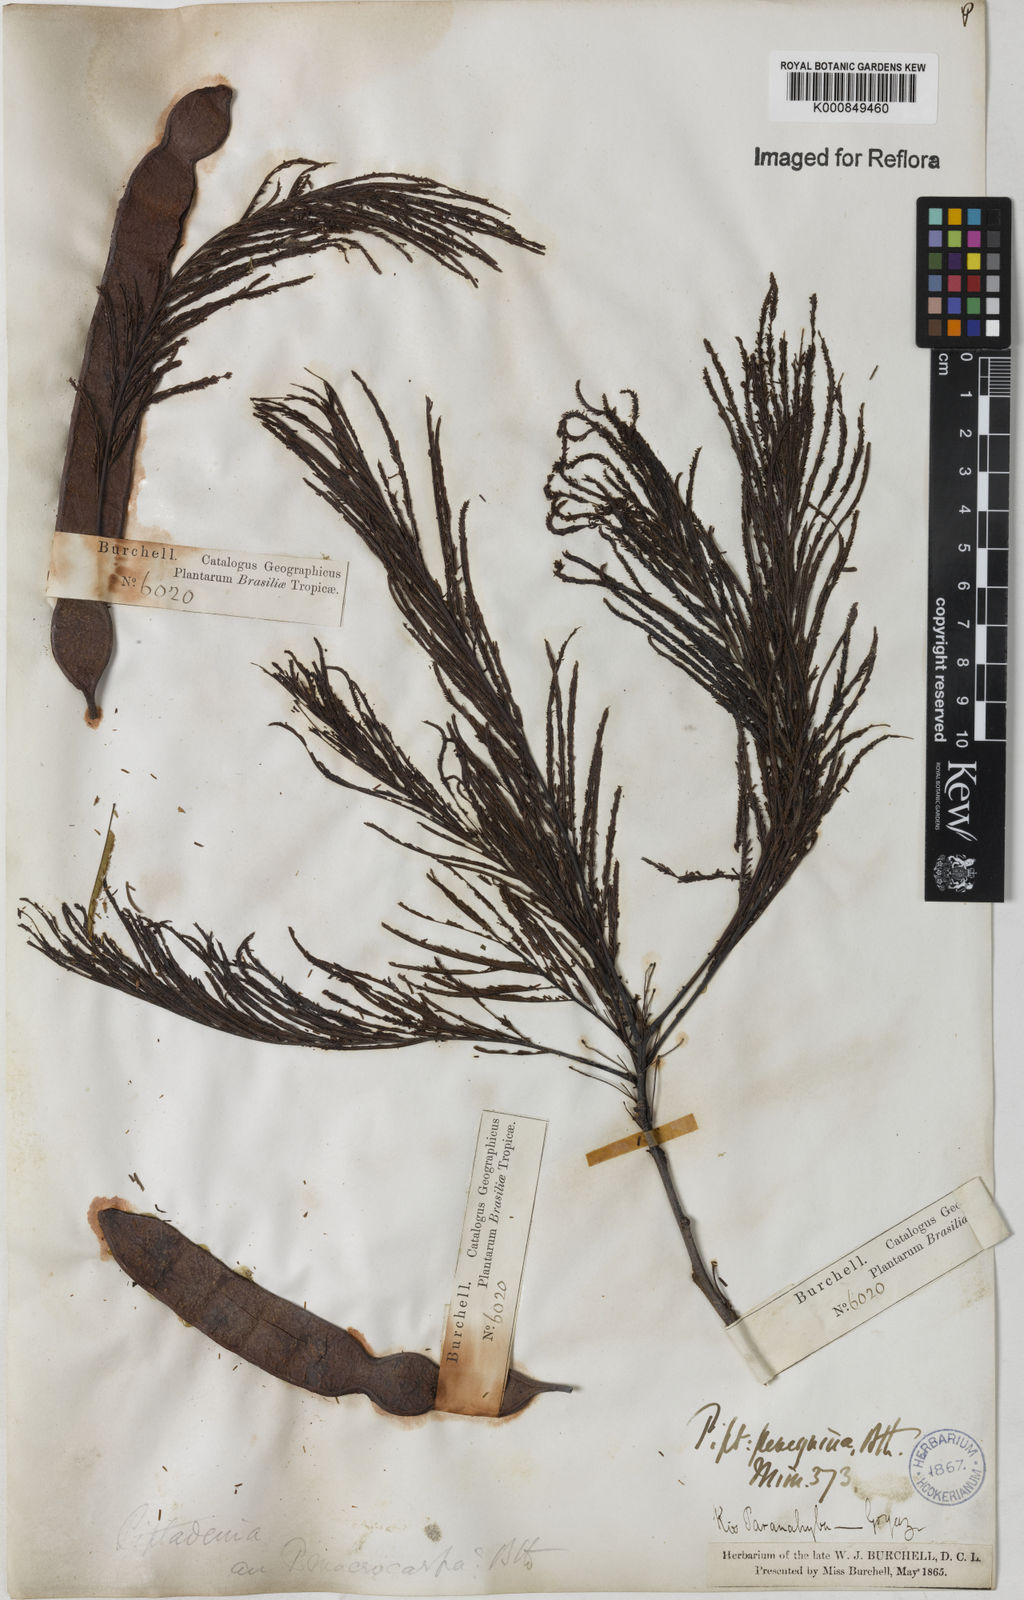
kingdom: Plantae
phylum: Tracheophyta
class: Magnoliopsida
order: Fabales
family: Fabaceae
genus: Anadenanthera
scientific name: Anadenanthera peregrina
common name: Cohoba
